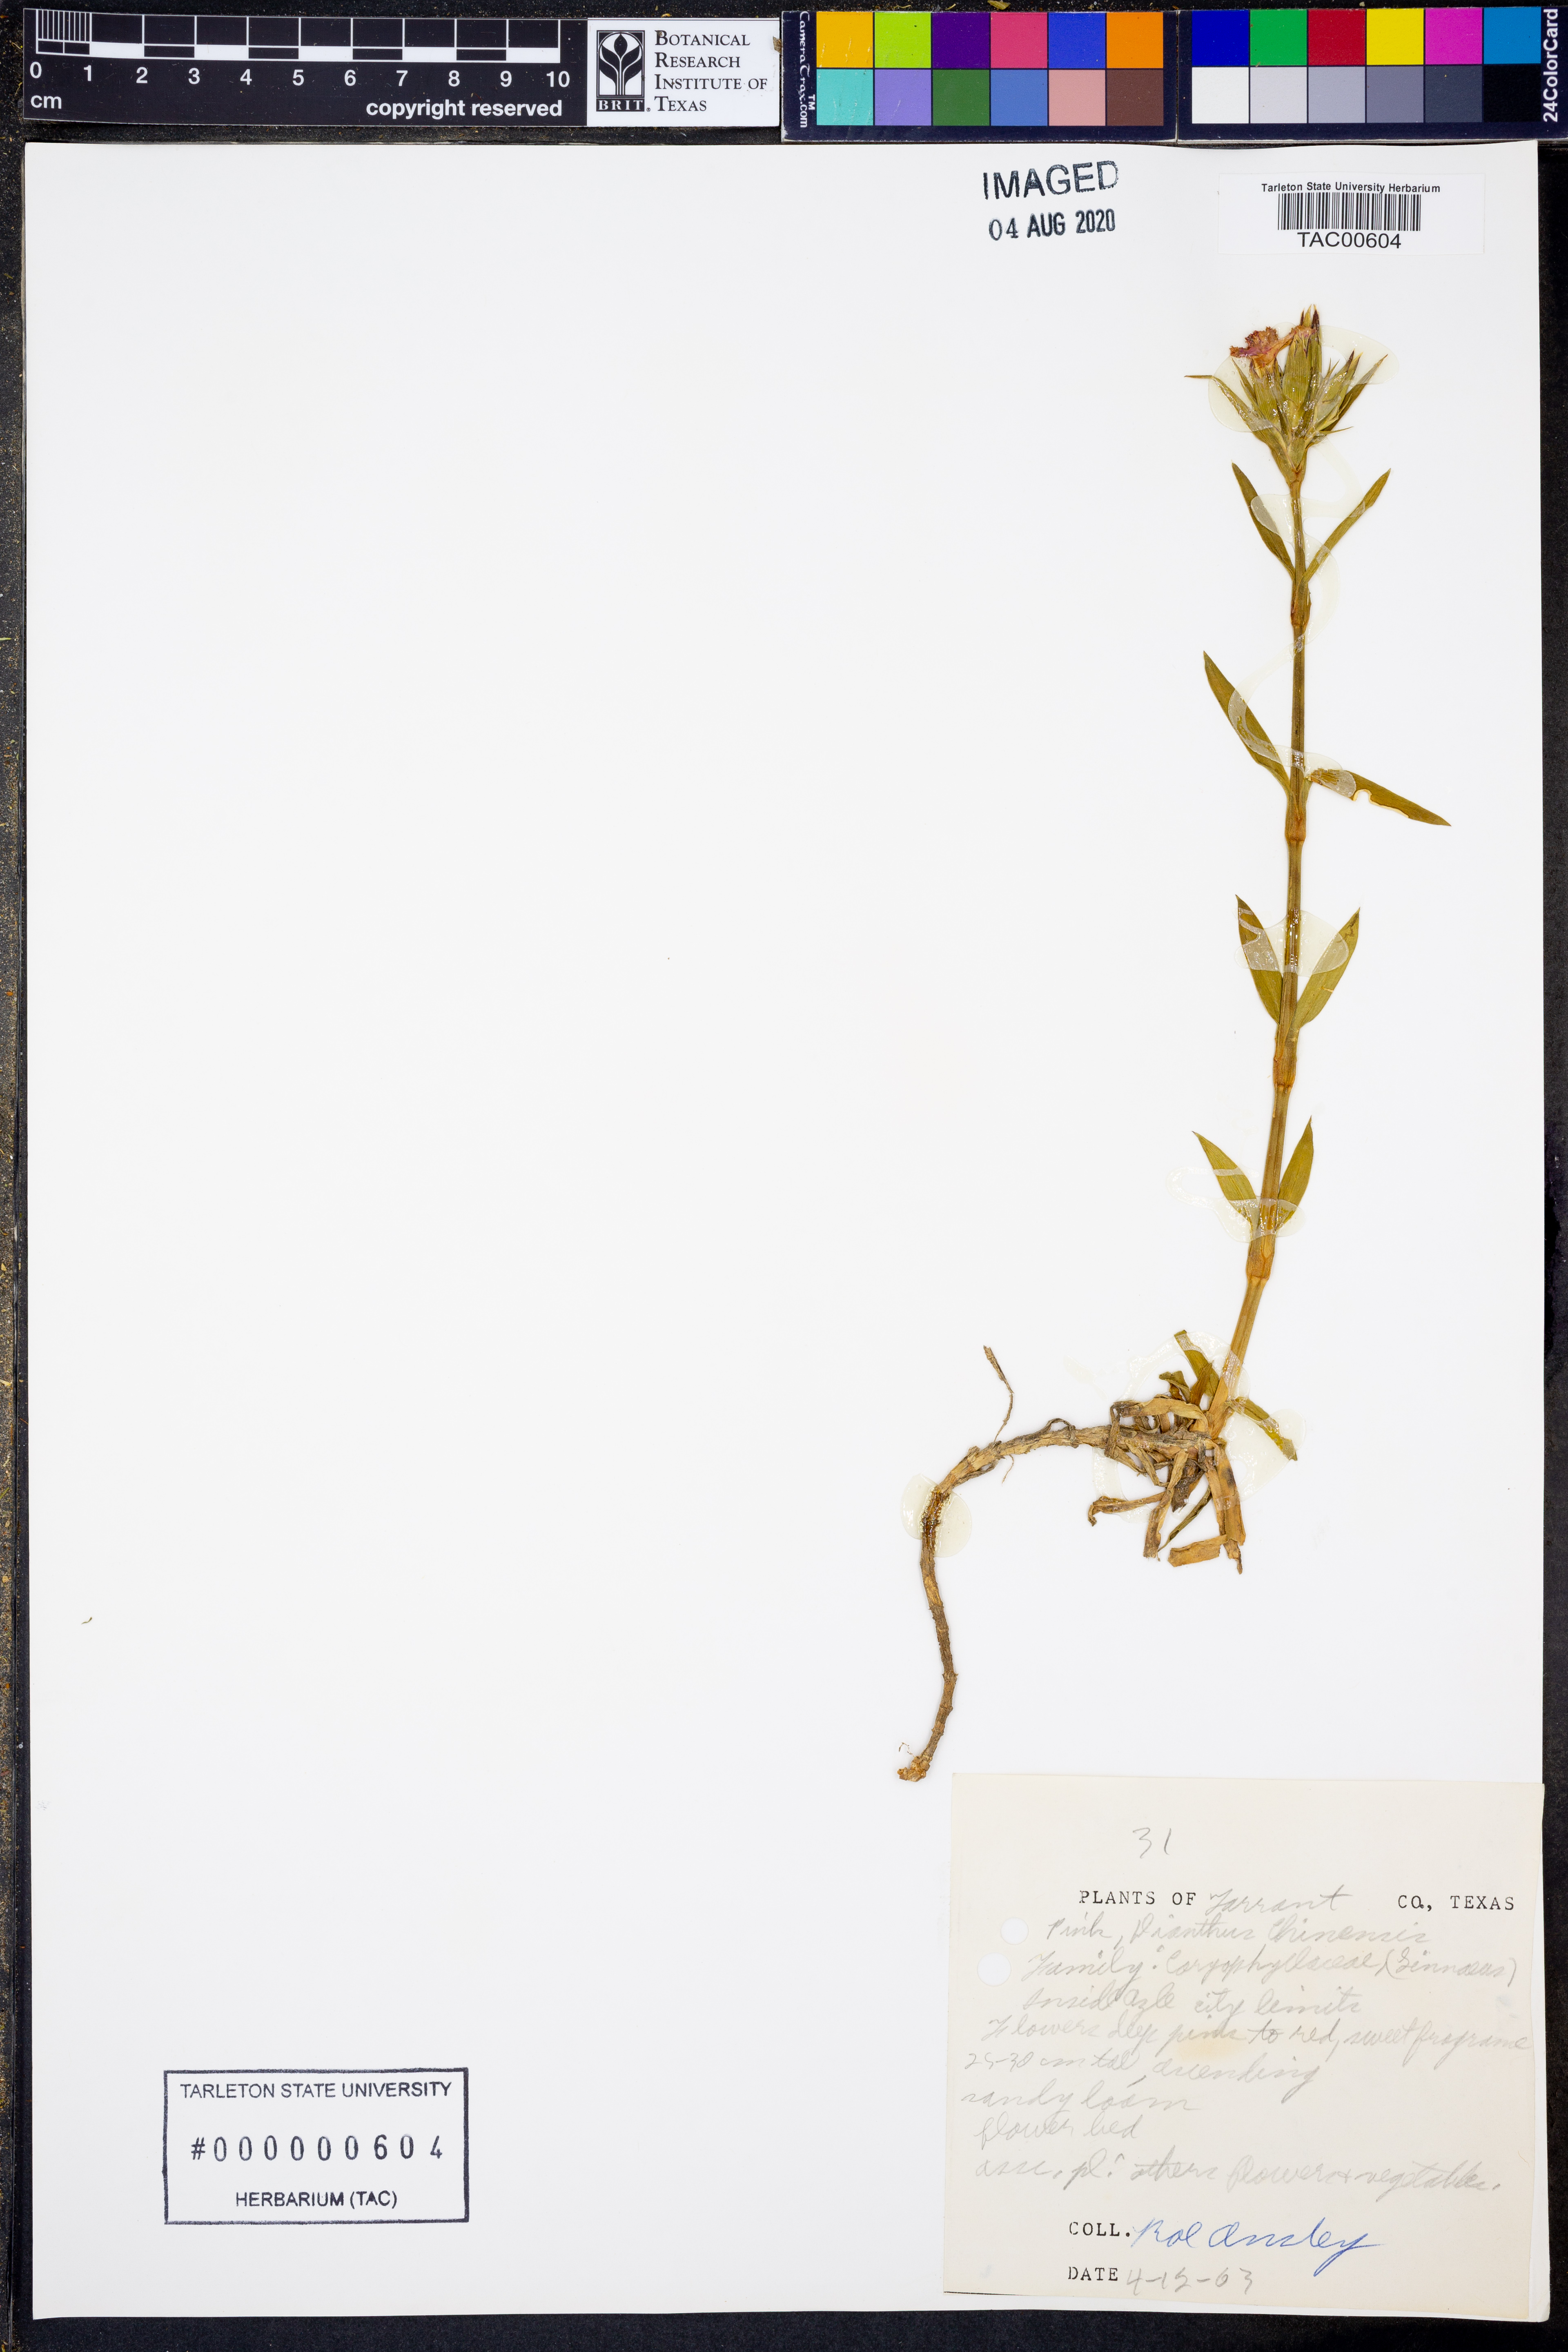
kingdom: Plantae
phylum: Tracheophyta
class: Magnoliopsida
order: Caryophyllales
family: Caryophyllaceae
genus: Dianthus
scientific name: Dianthus chinensis
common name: Rainbow pink
